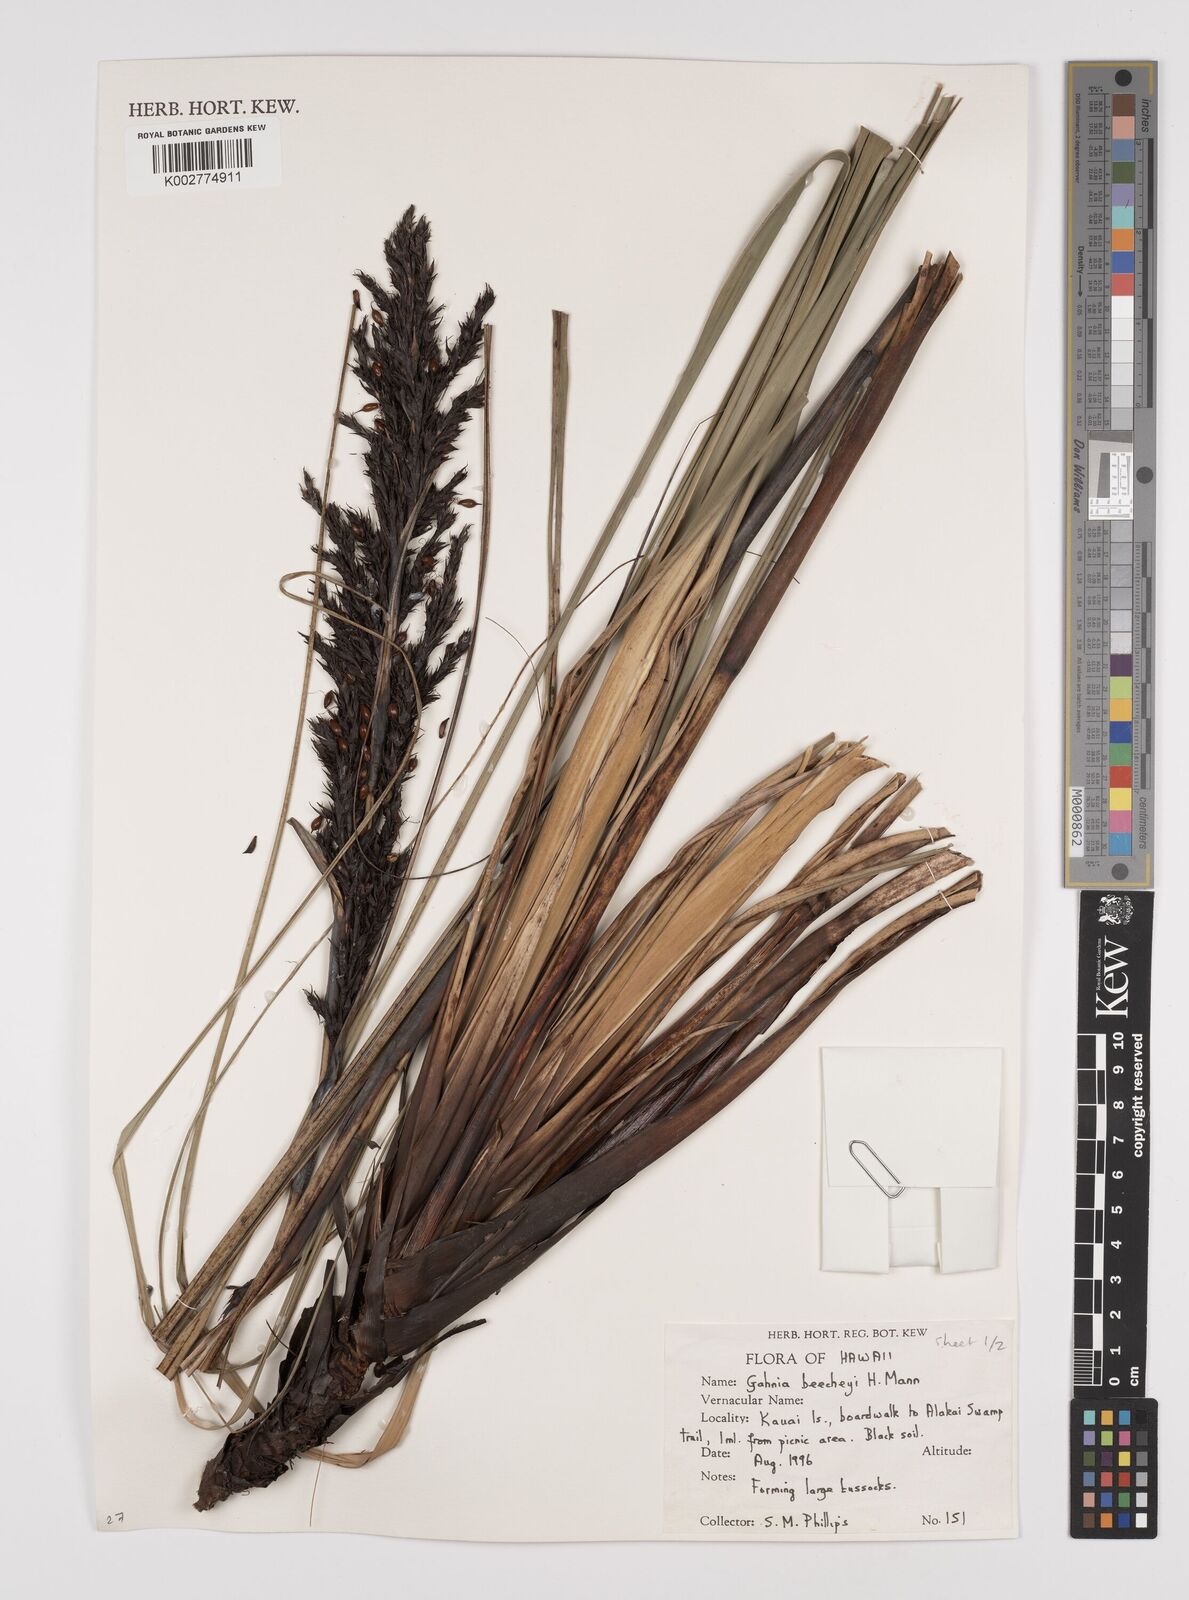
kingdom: Plantae
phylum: Tracheophyta
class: Liliopsida
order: Poales
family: Cyperaceae
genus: Gahnia
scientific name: Gahnia beecheyi
